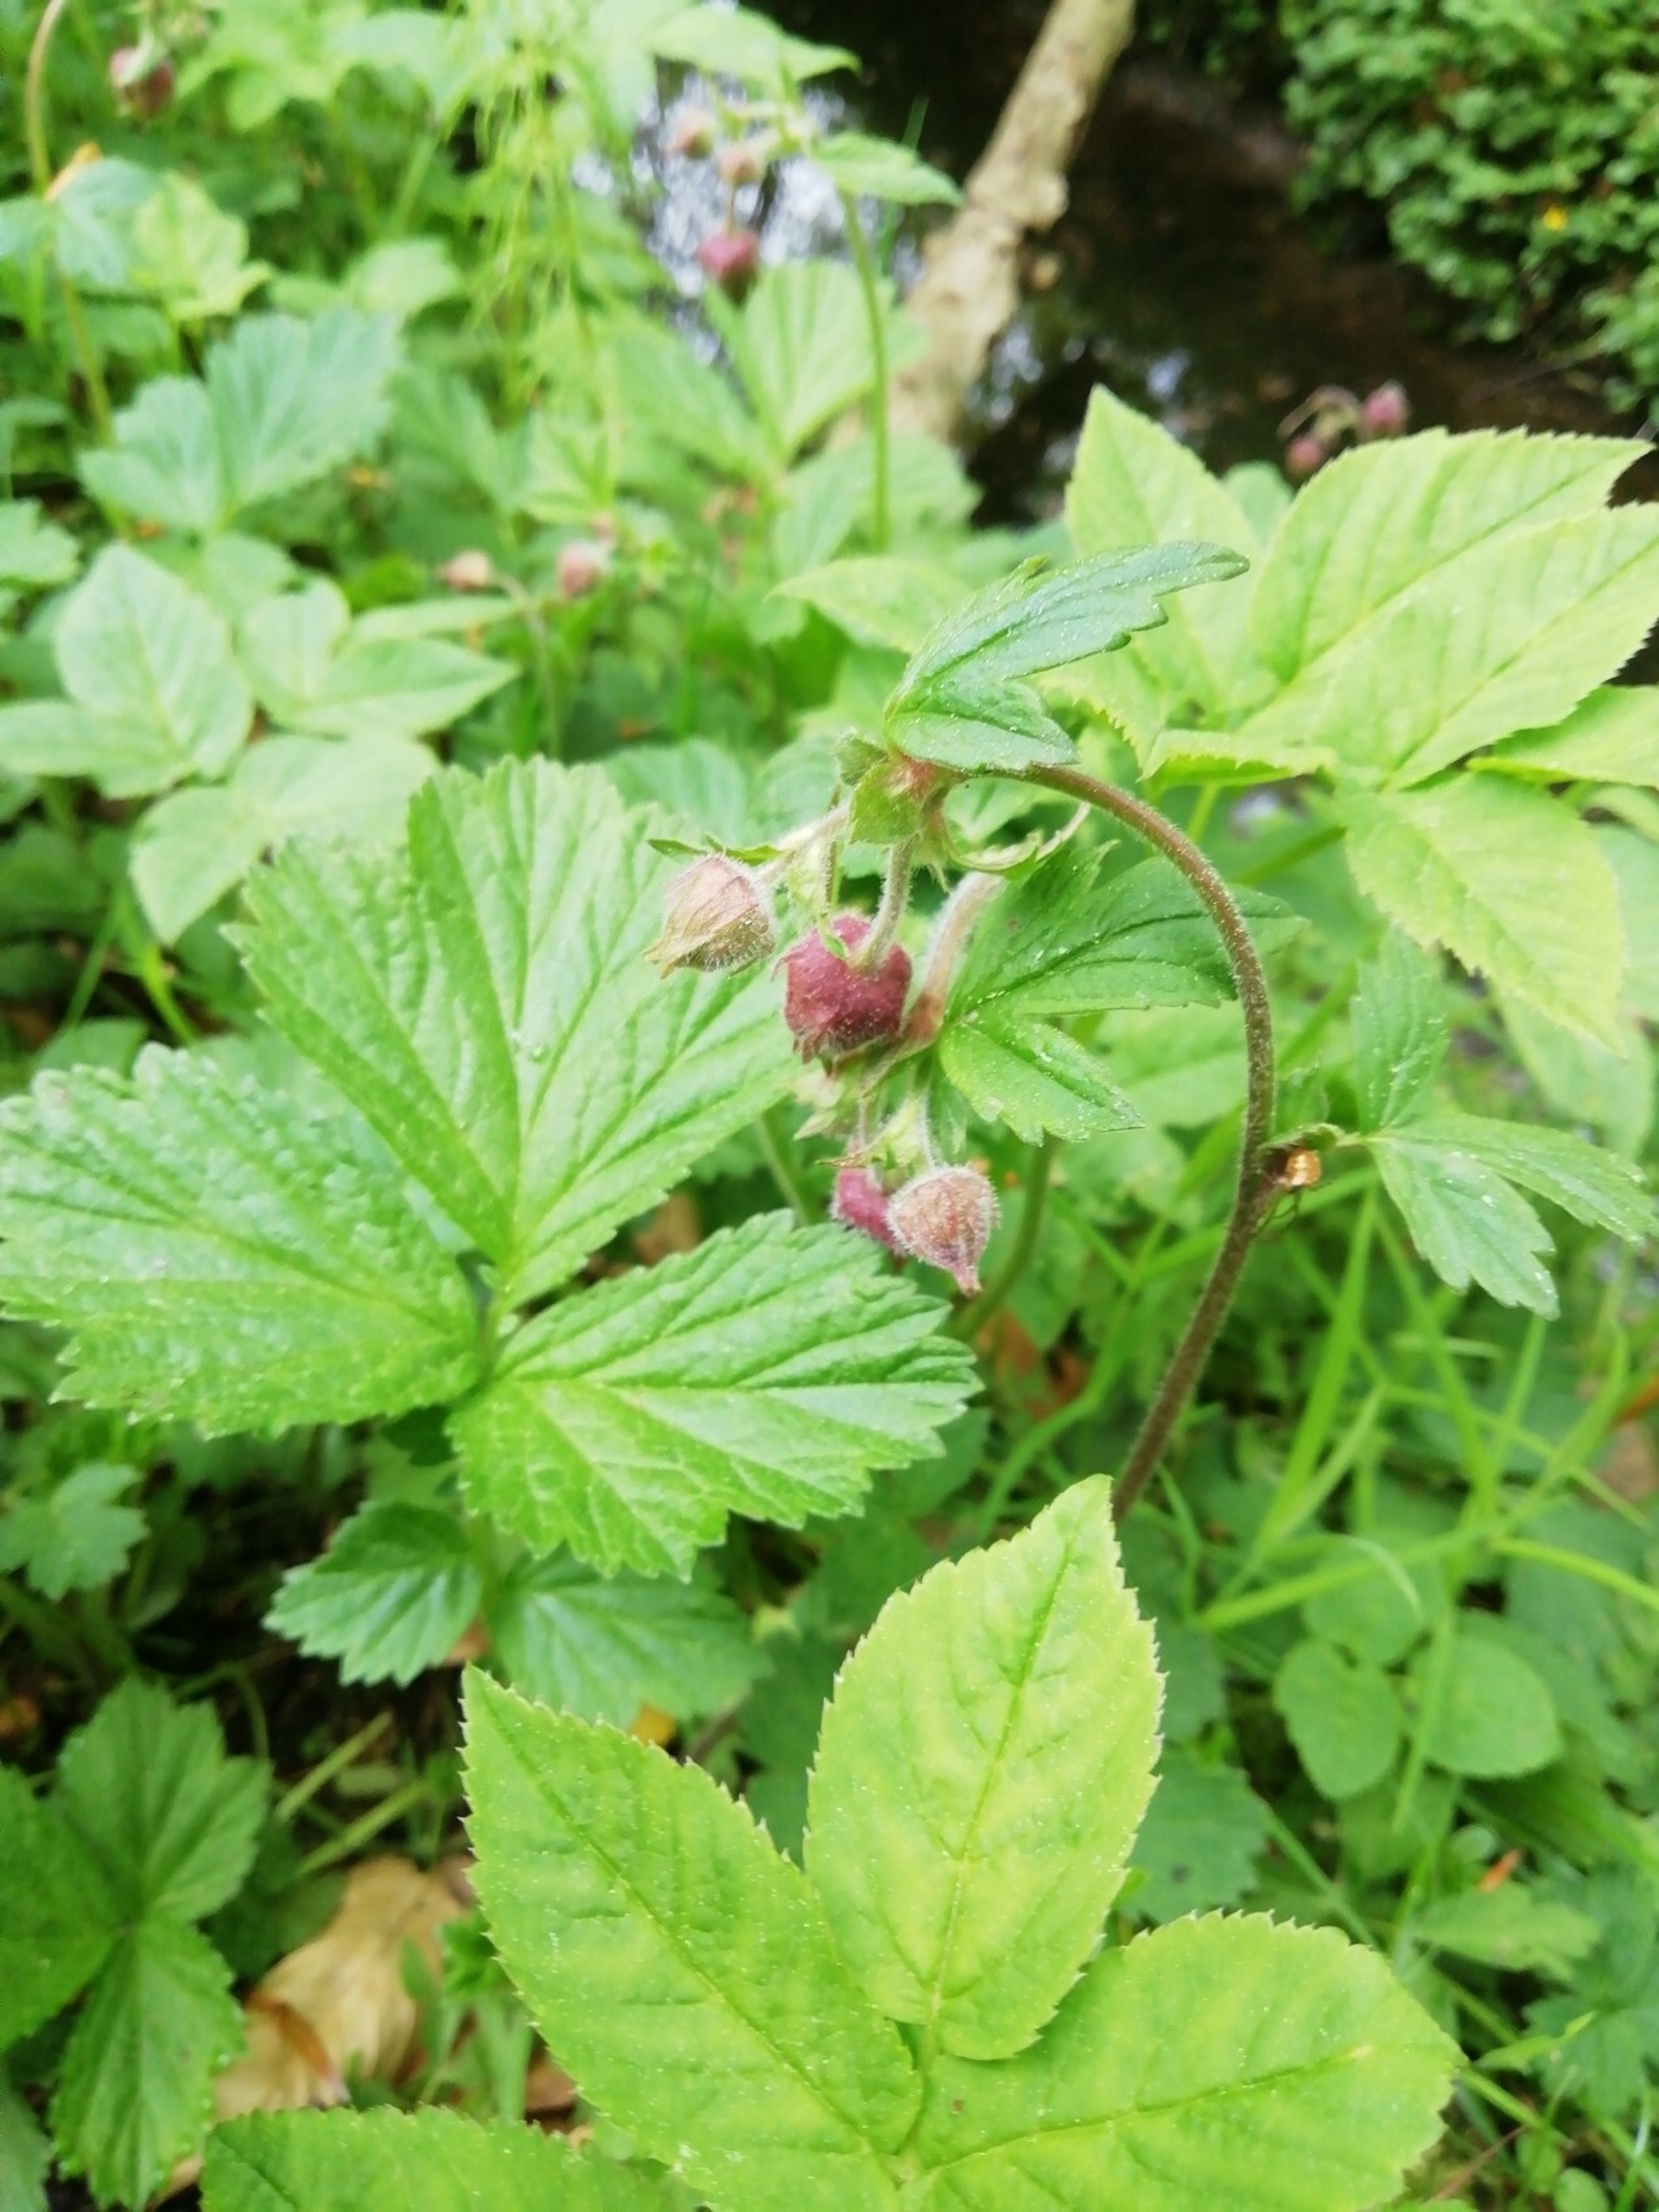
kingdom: Plantae
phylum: Tracheophyta
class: Magnoliopsida
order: Rosales
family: Rosaceae
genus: Geum
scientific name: Geum rivale
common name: Eng-nellikerod
